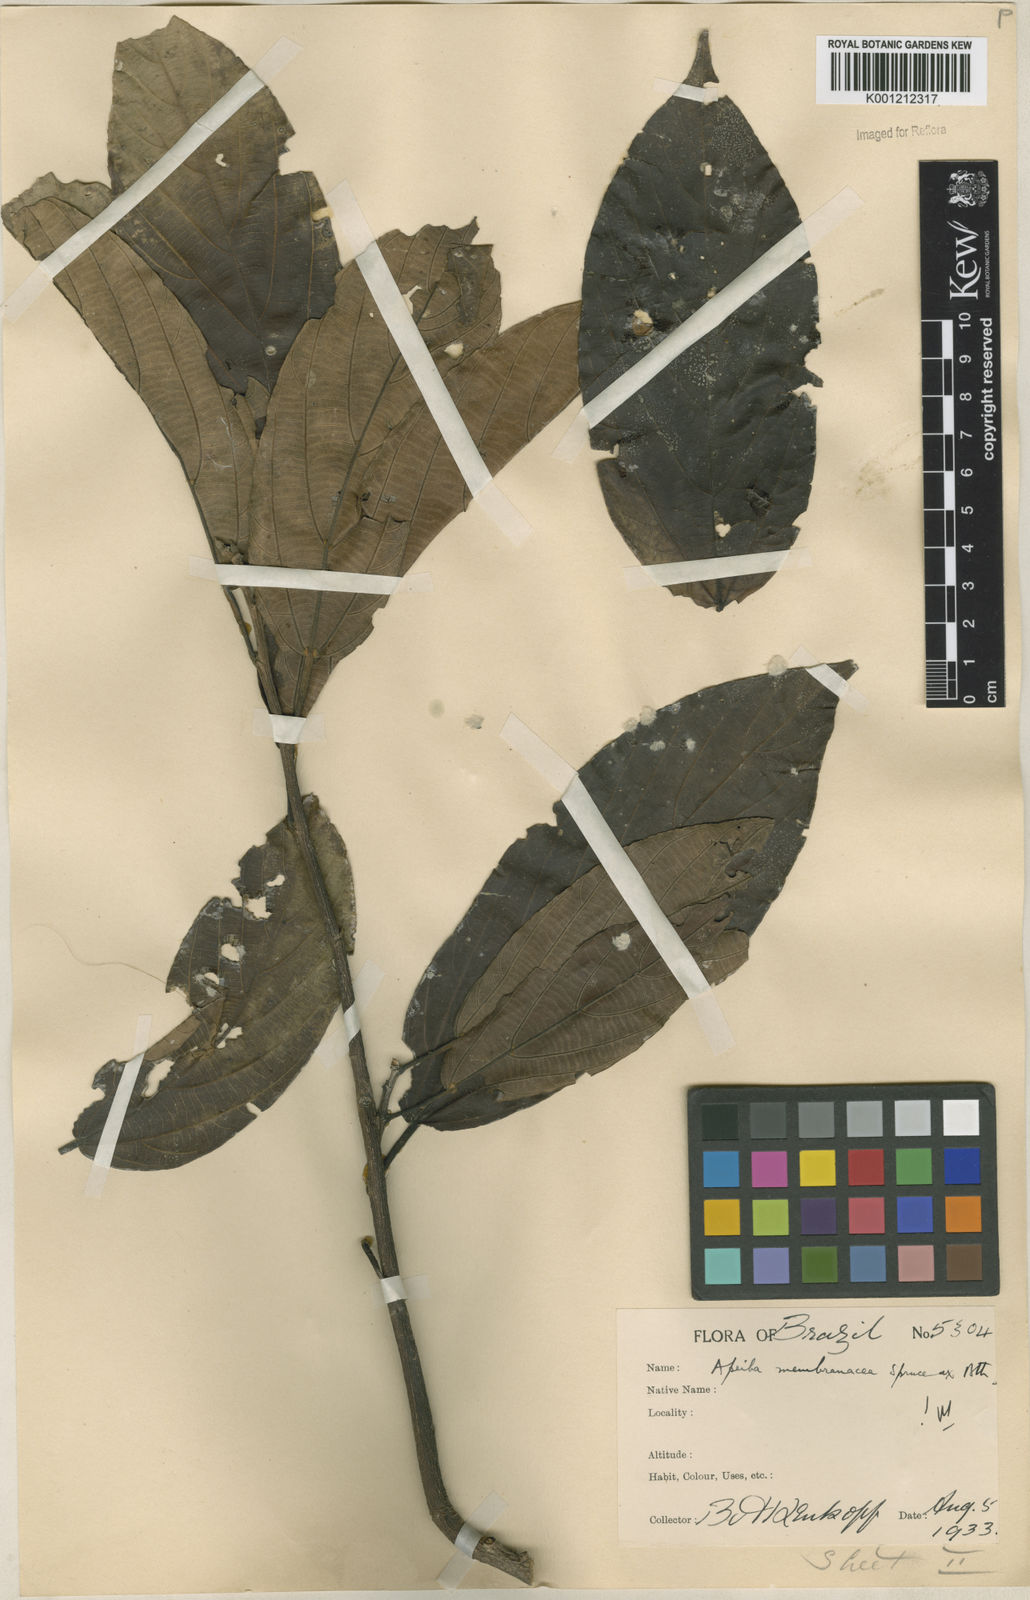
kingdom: Plantae
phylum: Tracheophyta
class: Magnoliopsida
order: Malvales
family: Malvaceae
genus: Apeiba
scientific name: Apeiba membranacea
